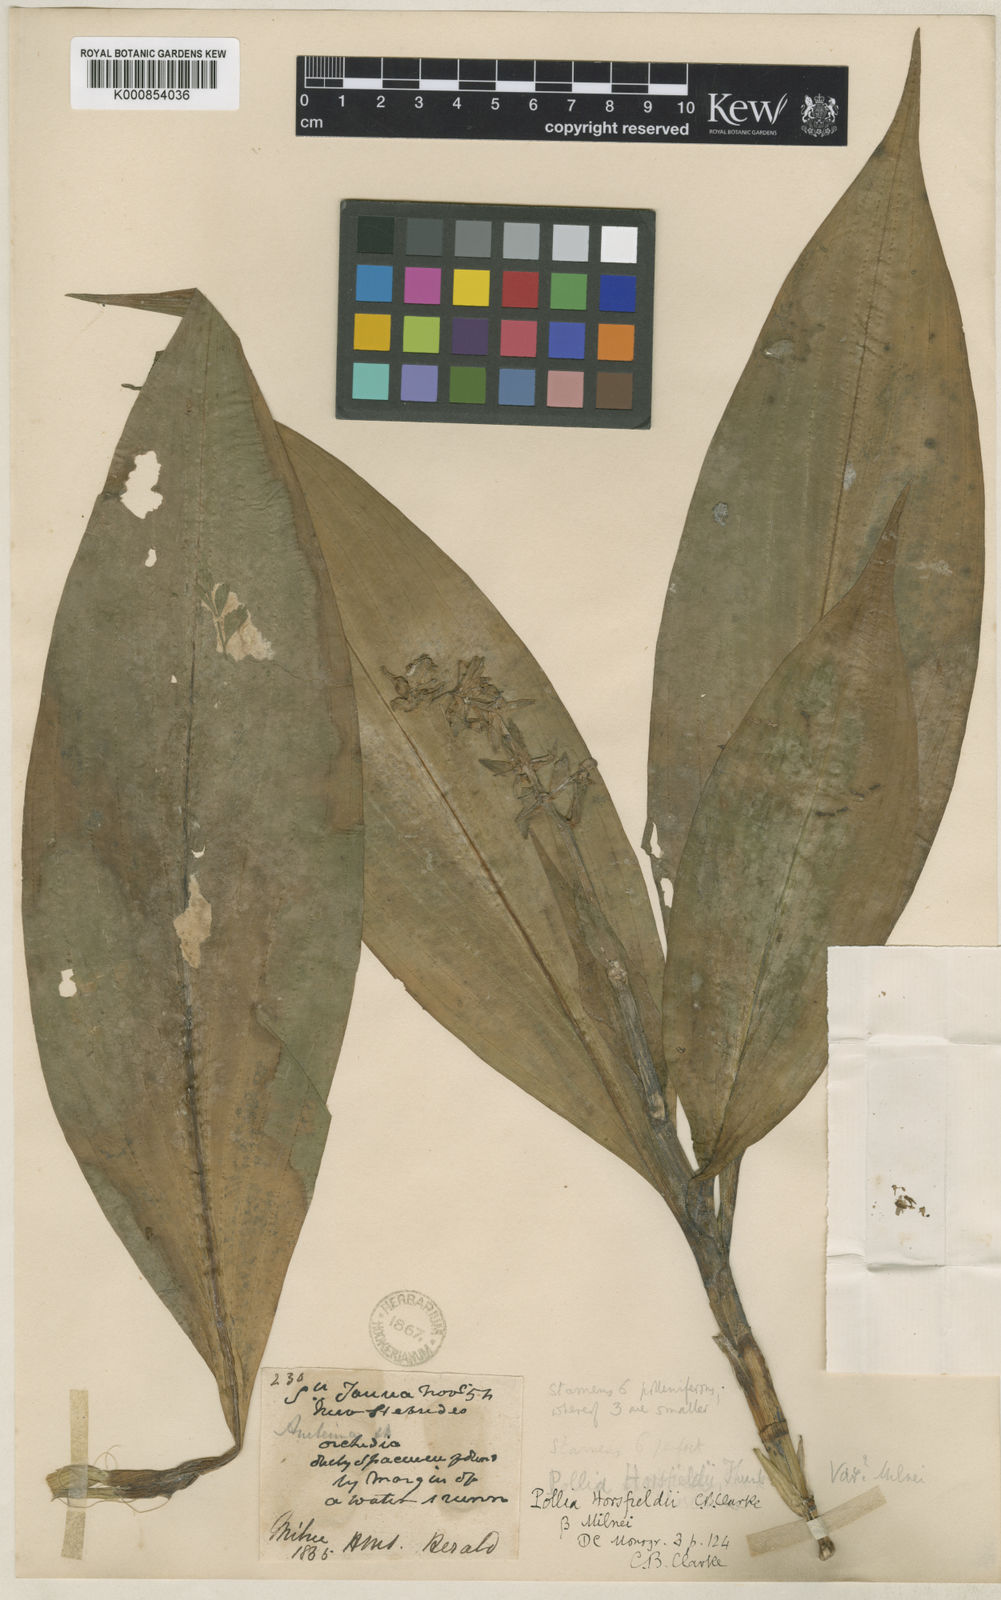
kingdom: Plantae
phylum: Tracheophyta
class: Liliopsida
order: Commelinales
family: Commelinaceae
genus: Pollia
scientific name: Pollia horsfieldii
